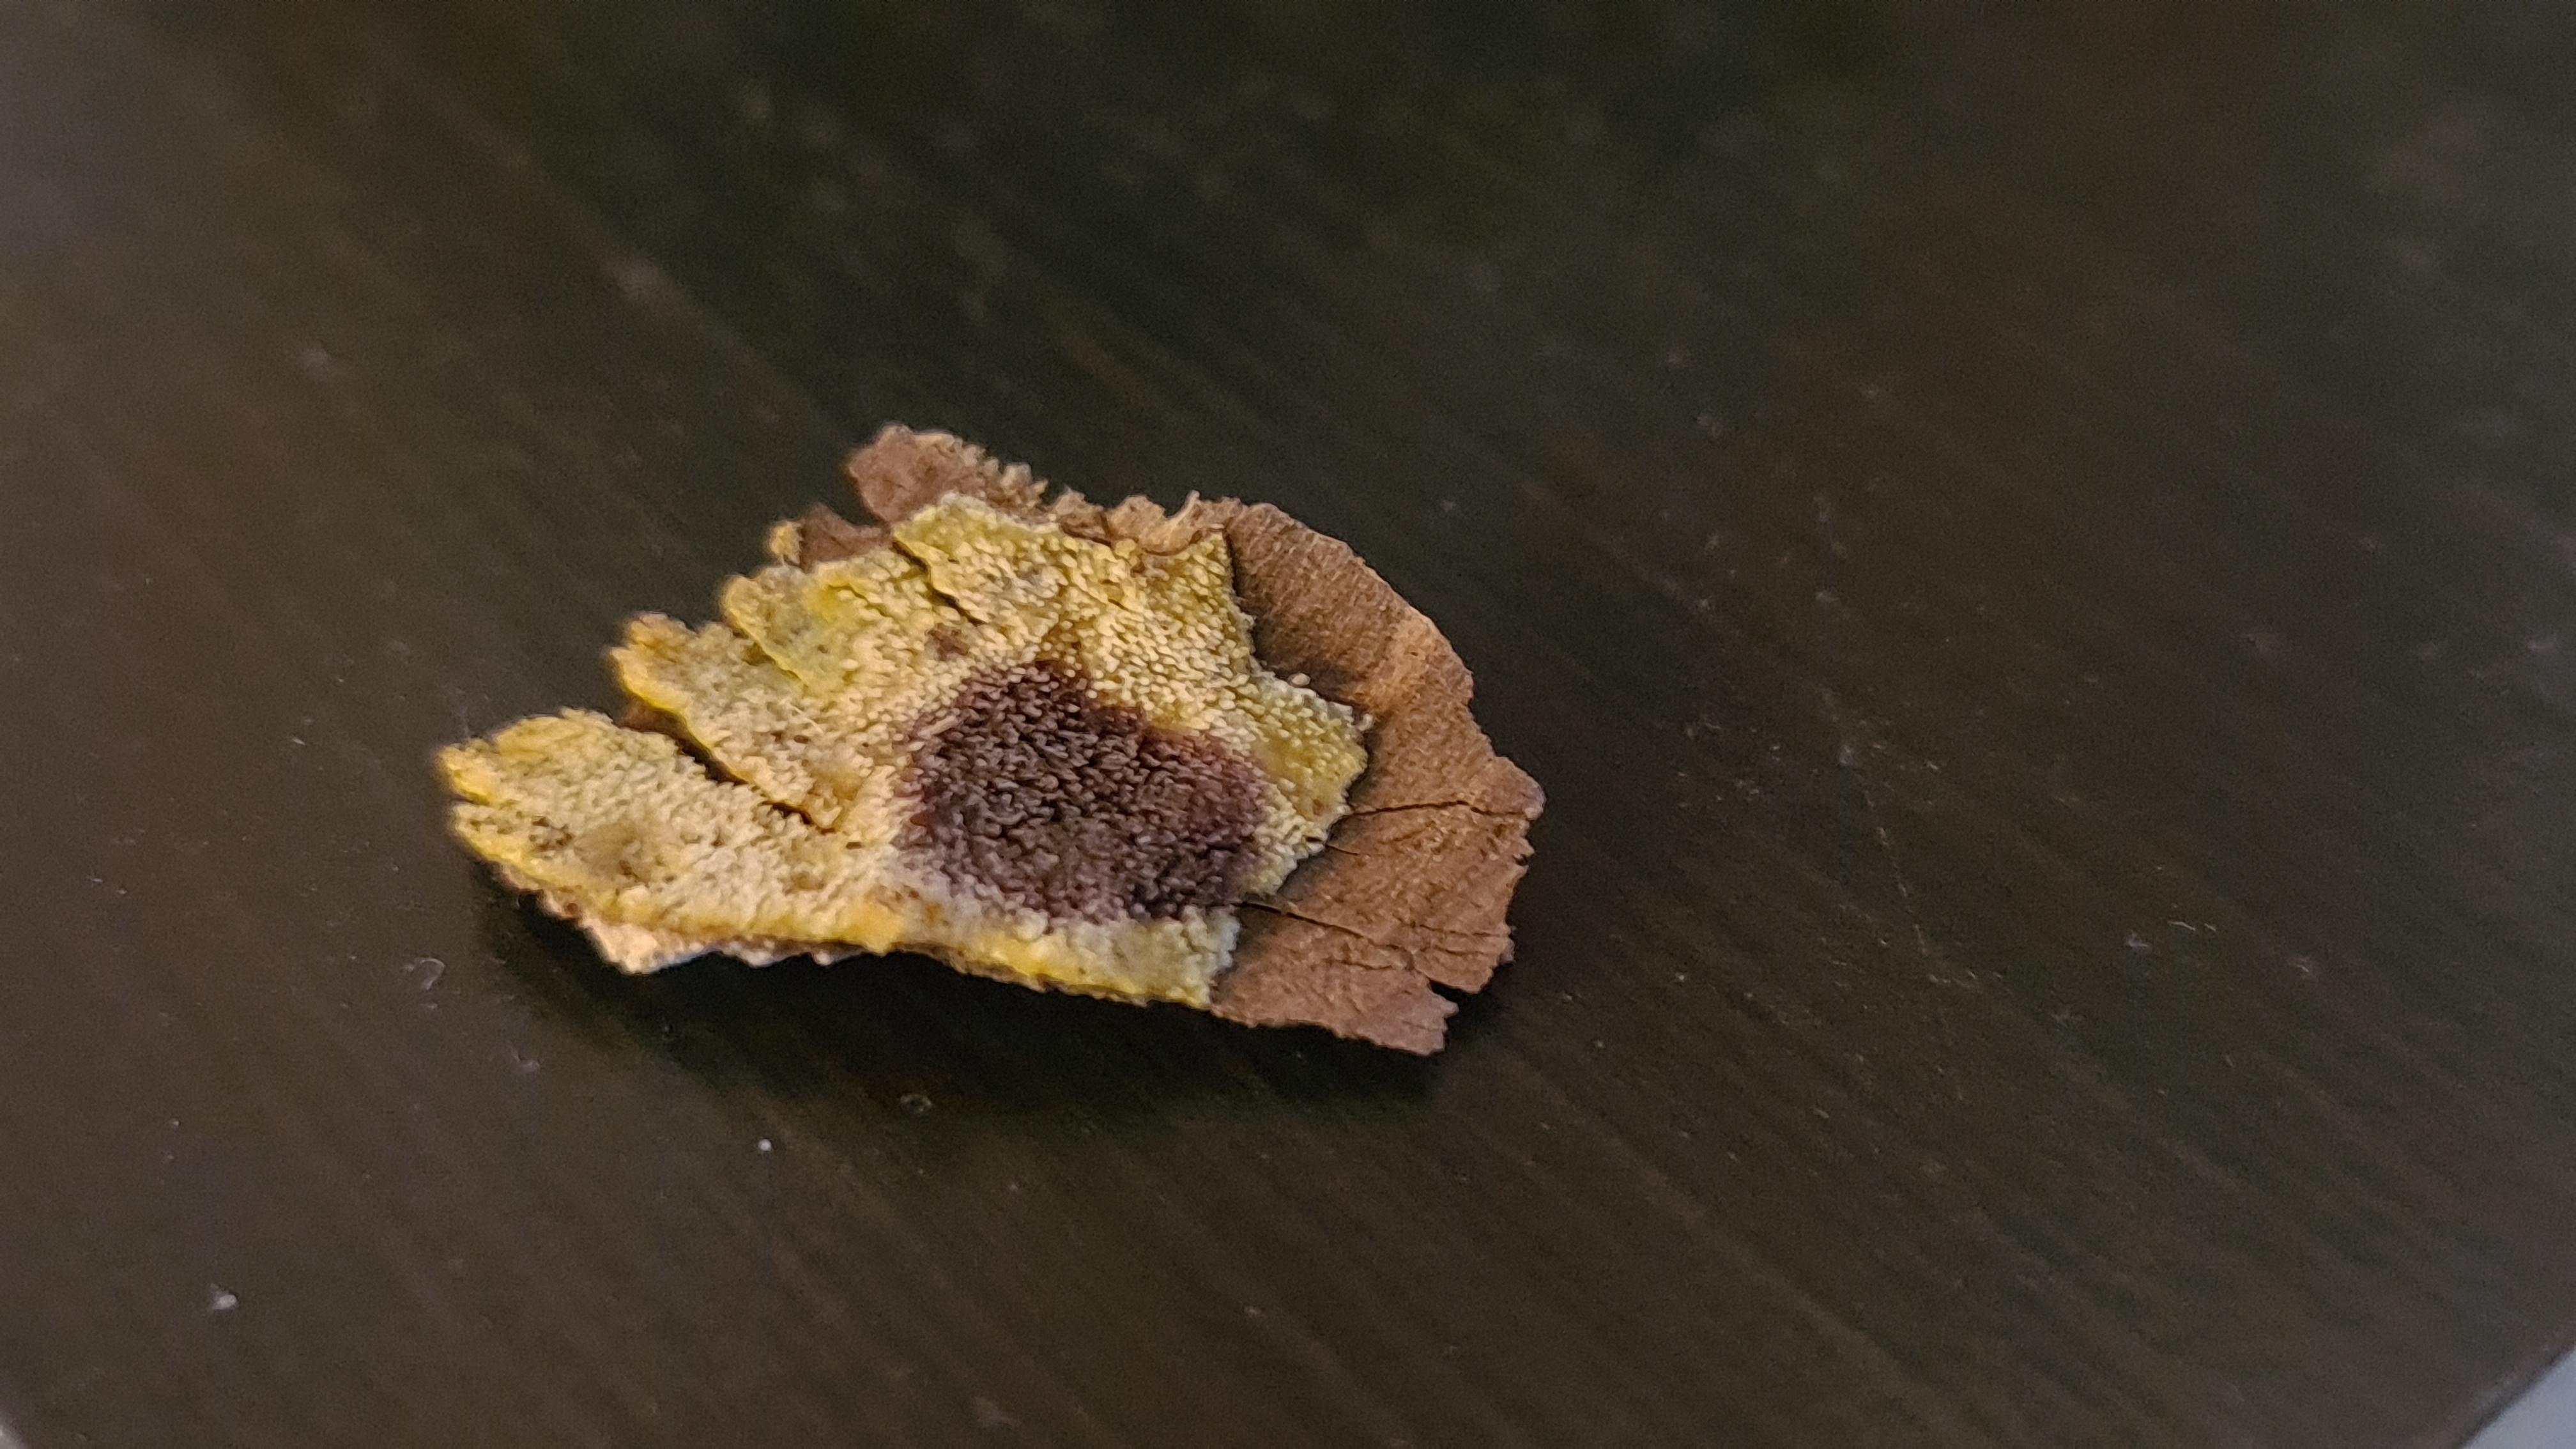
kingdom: Fungi
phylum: Basidiomycota
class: Agaricomycetes
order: Polyporales
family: Meruliaceae
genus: Mycoacia
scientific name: Mycoacia uda
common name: citrongul vokspig
